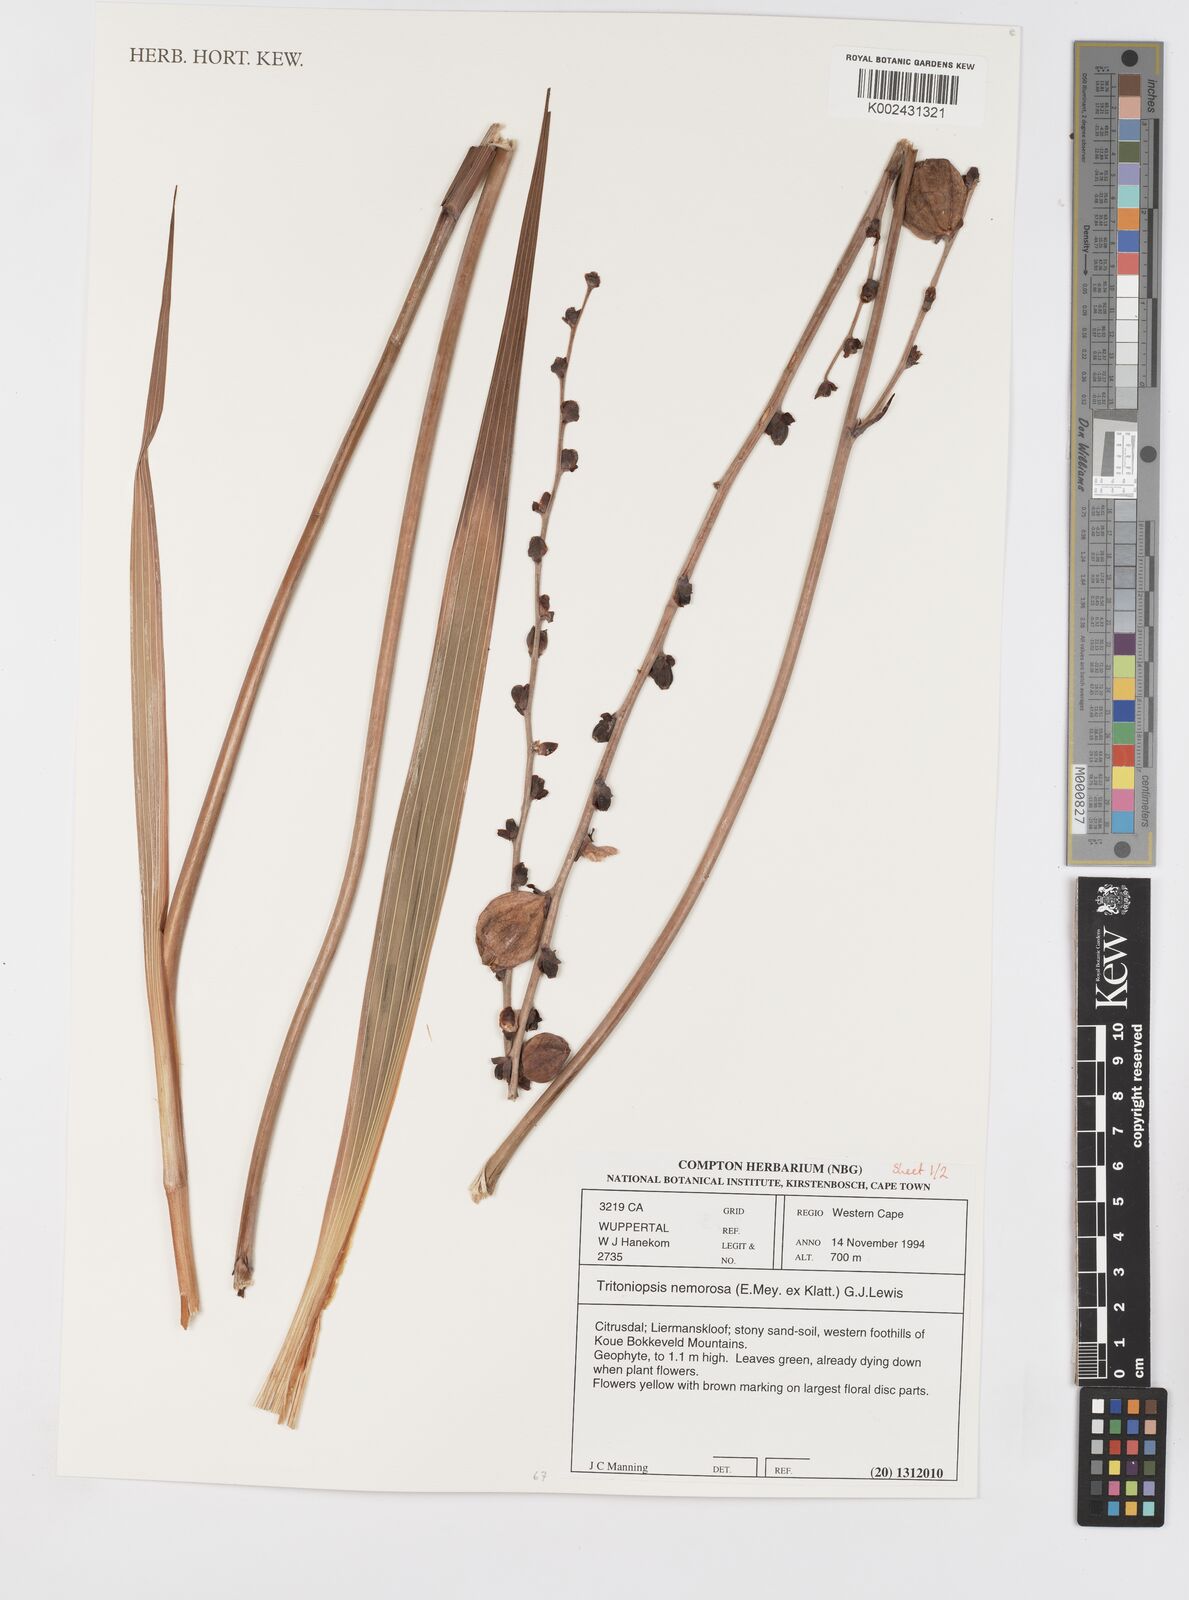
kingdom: Plantae
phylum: Tracheophyta
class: Liliopsida
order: Asparagales
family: Iridaceae
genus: Tritoniopsis
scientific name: Tritoniopsis nemorosa
